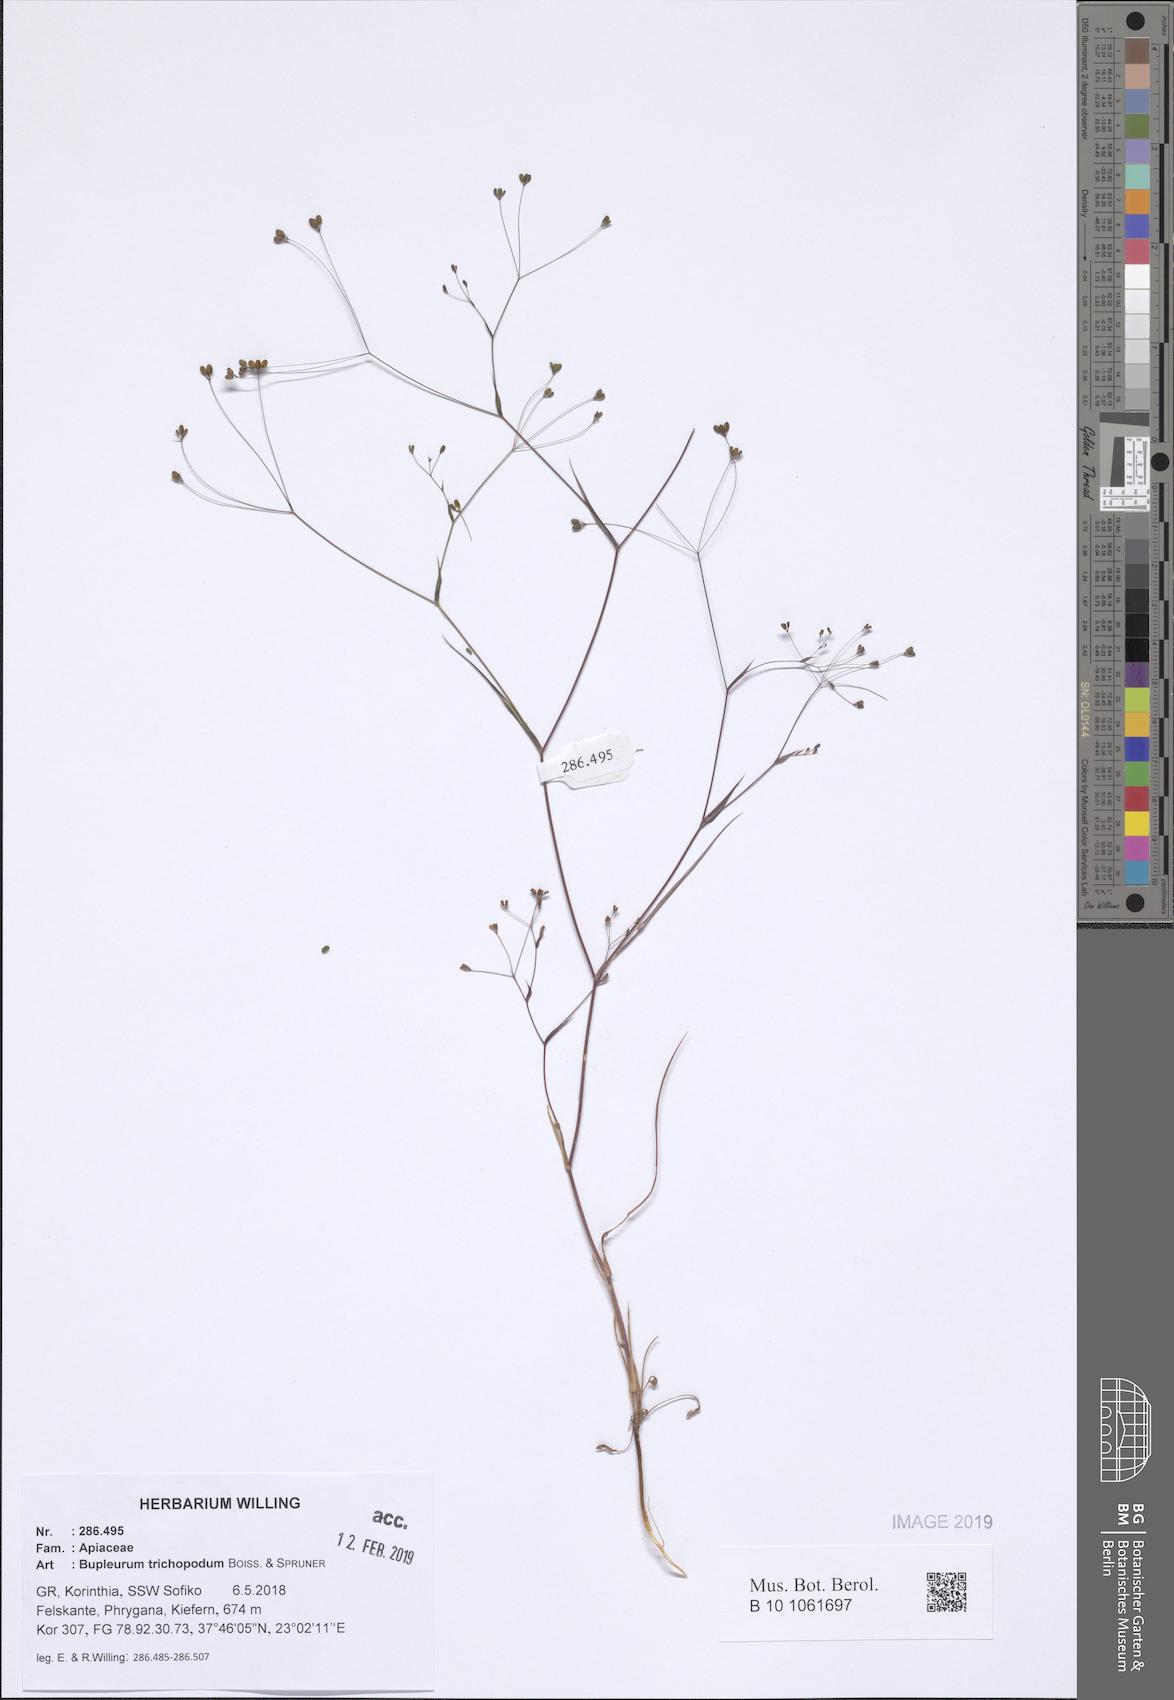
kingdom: Plantae
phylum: Tracheophyta
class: Magnoliopsida
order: Apiales
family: Apiaceae
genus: Bupleurum
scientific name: Bupleurum trichopodum
